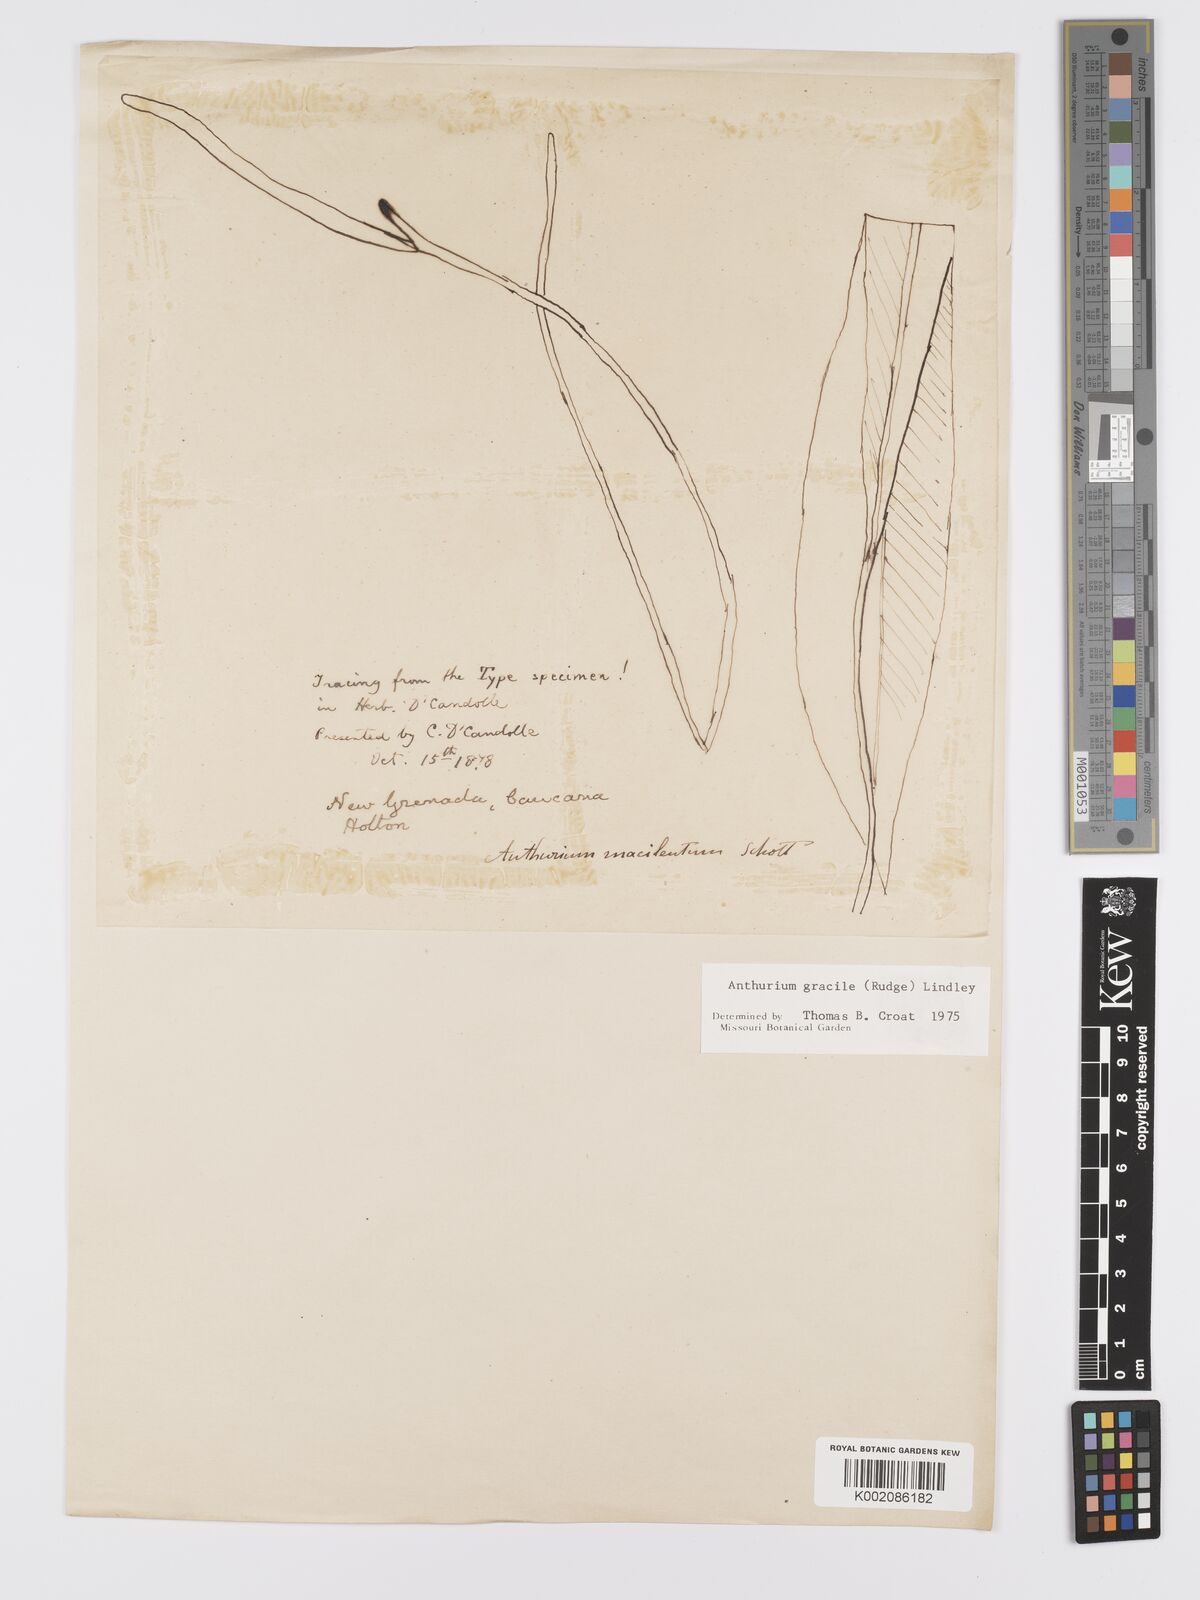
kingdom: Plantae
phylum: Tracheophyta
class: Liliopsida
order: Alismatales
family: Araceae
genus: Anthurium
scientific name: Anthurium gracile
